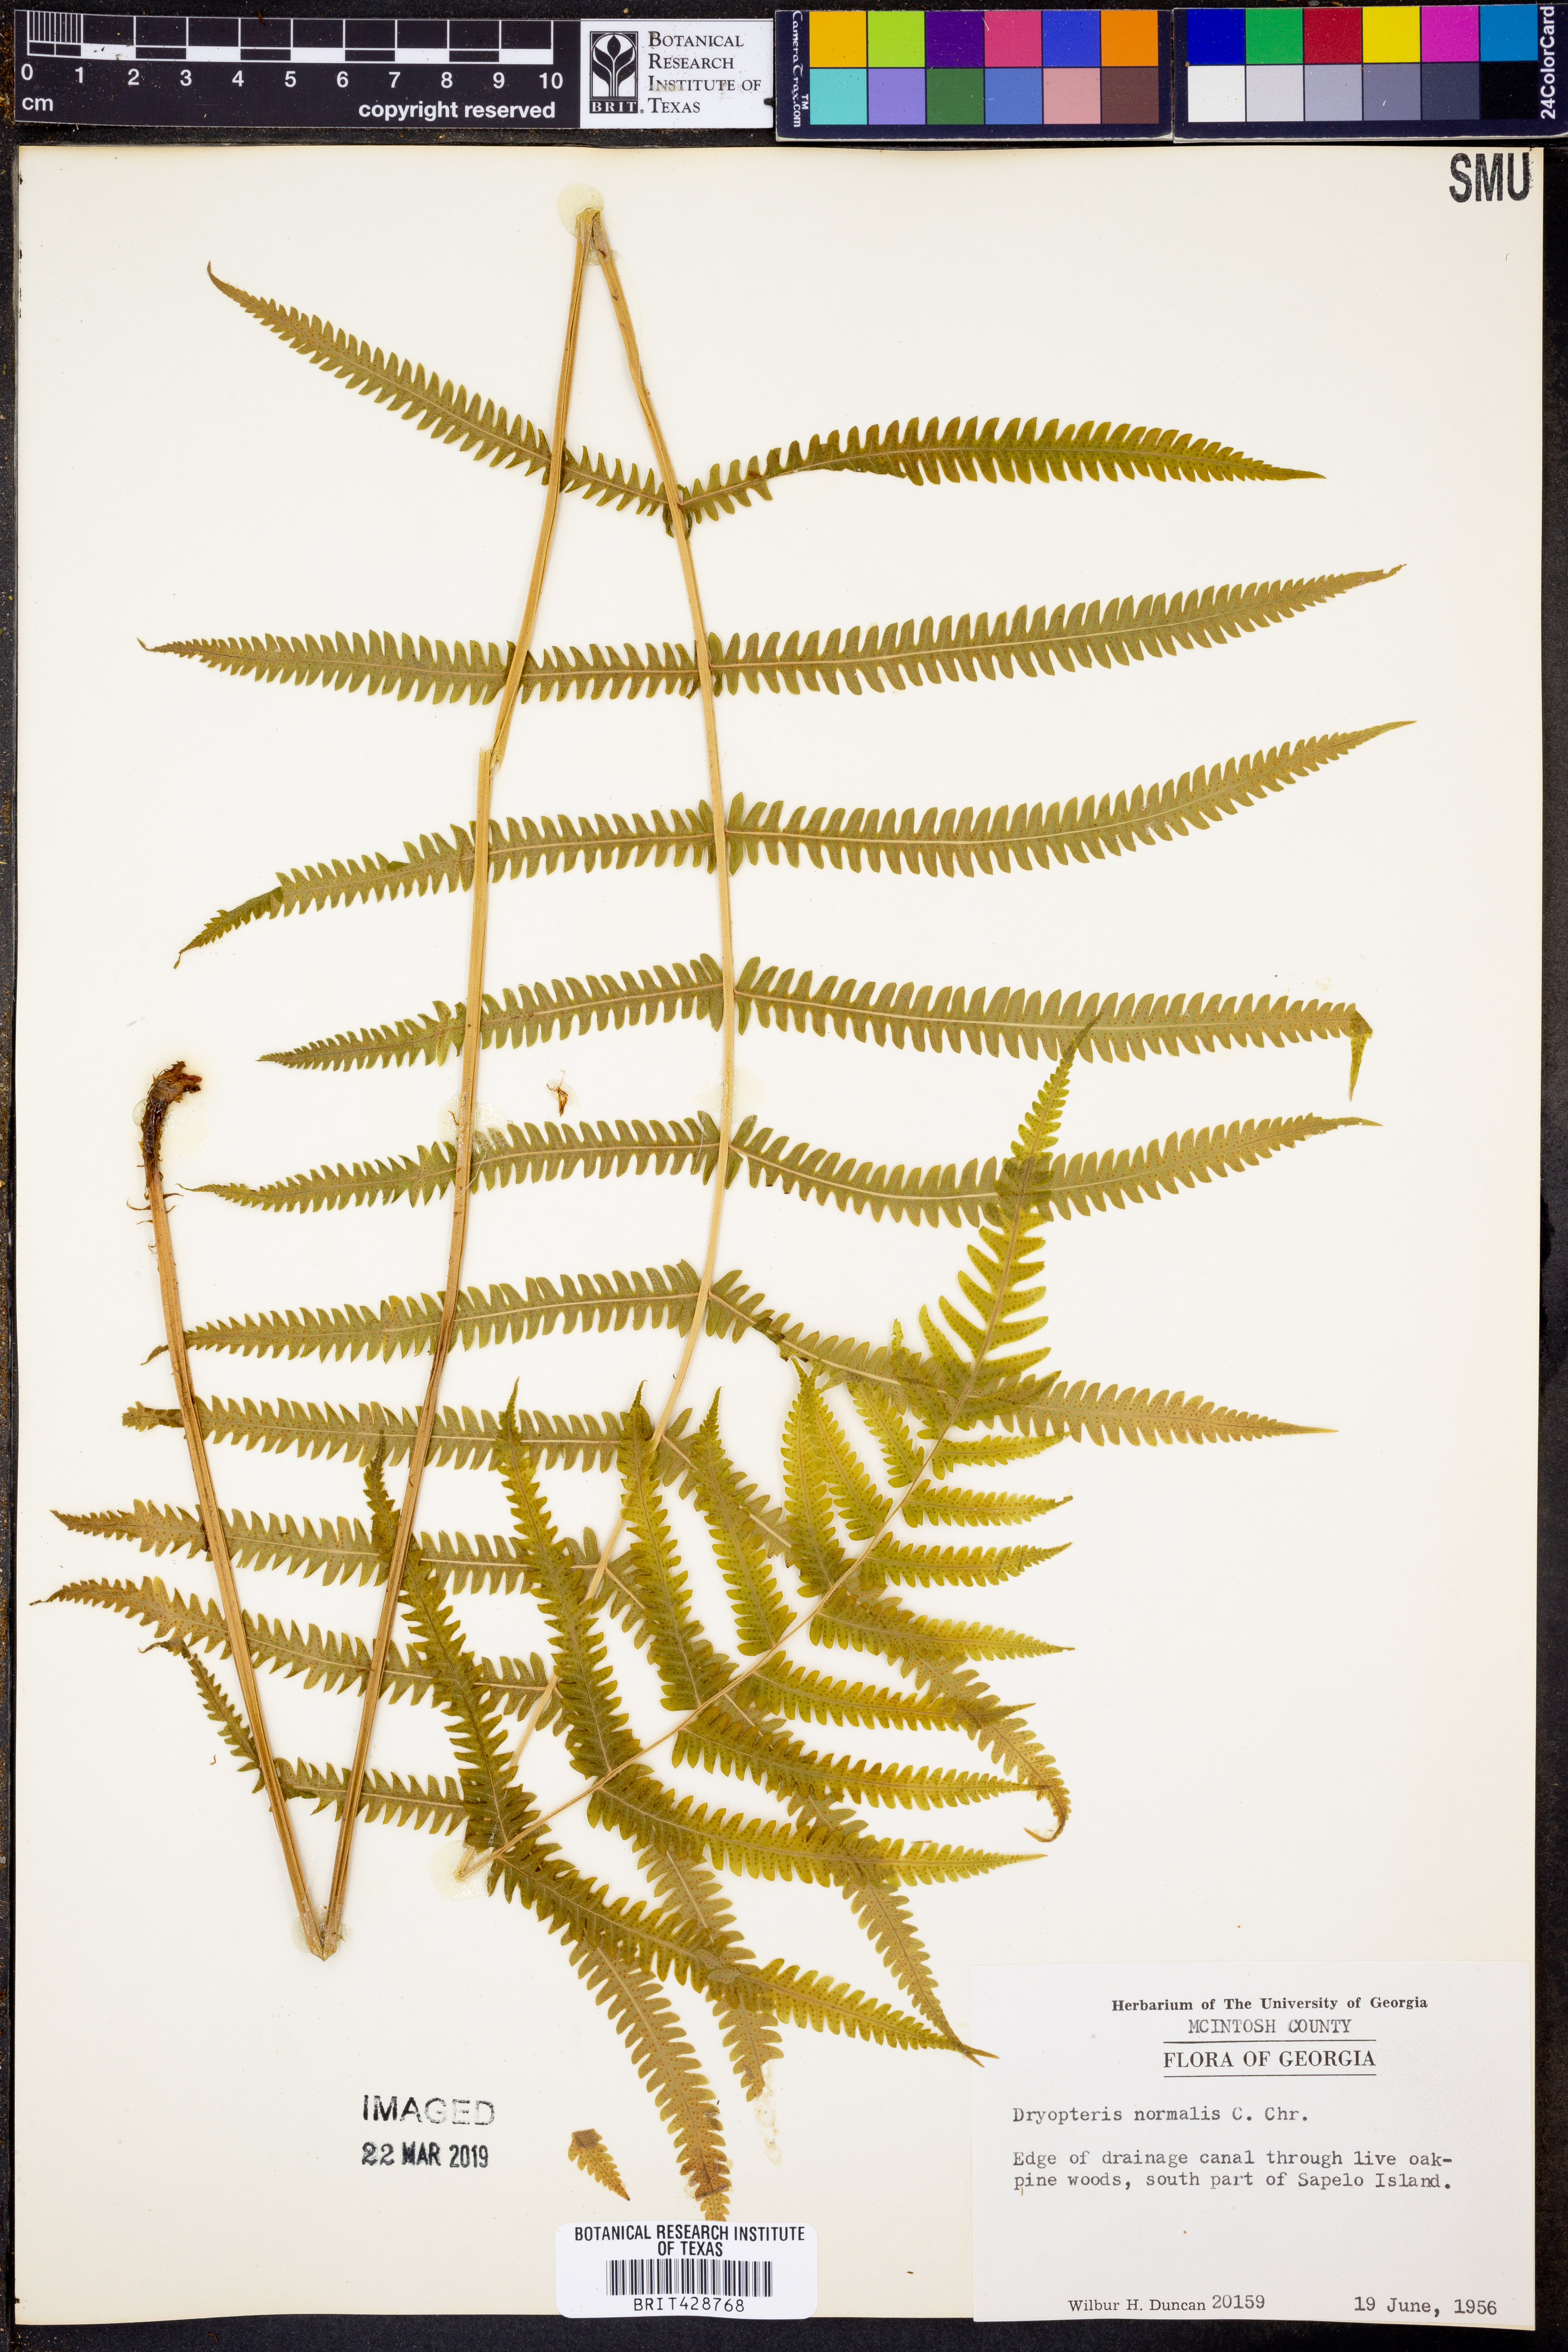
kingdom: Plantae
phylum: Tracheophyta
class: Polypodiopsida
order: Polypodiales
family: Thelypteridaceae
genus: Pelazoneuron
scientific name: Pelazoneuron kunthii
